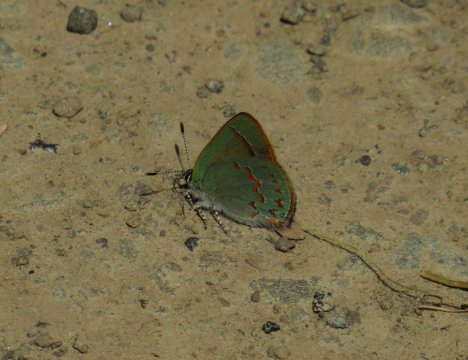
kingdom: Animalia
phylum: Arthropoda
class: Insecta
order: Lepidoptera
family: Lycaenidae
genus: Erora
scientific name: Erora laeta
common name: Early Hairstreak
